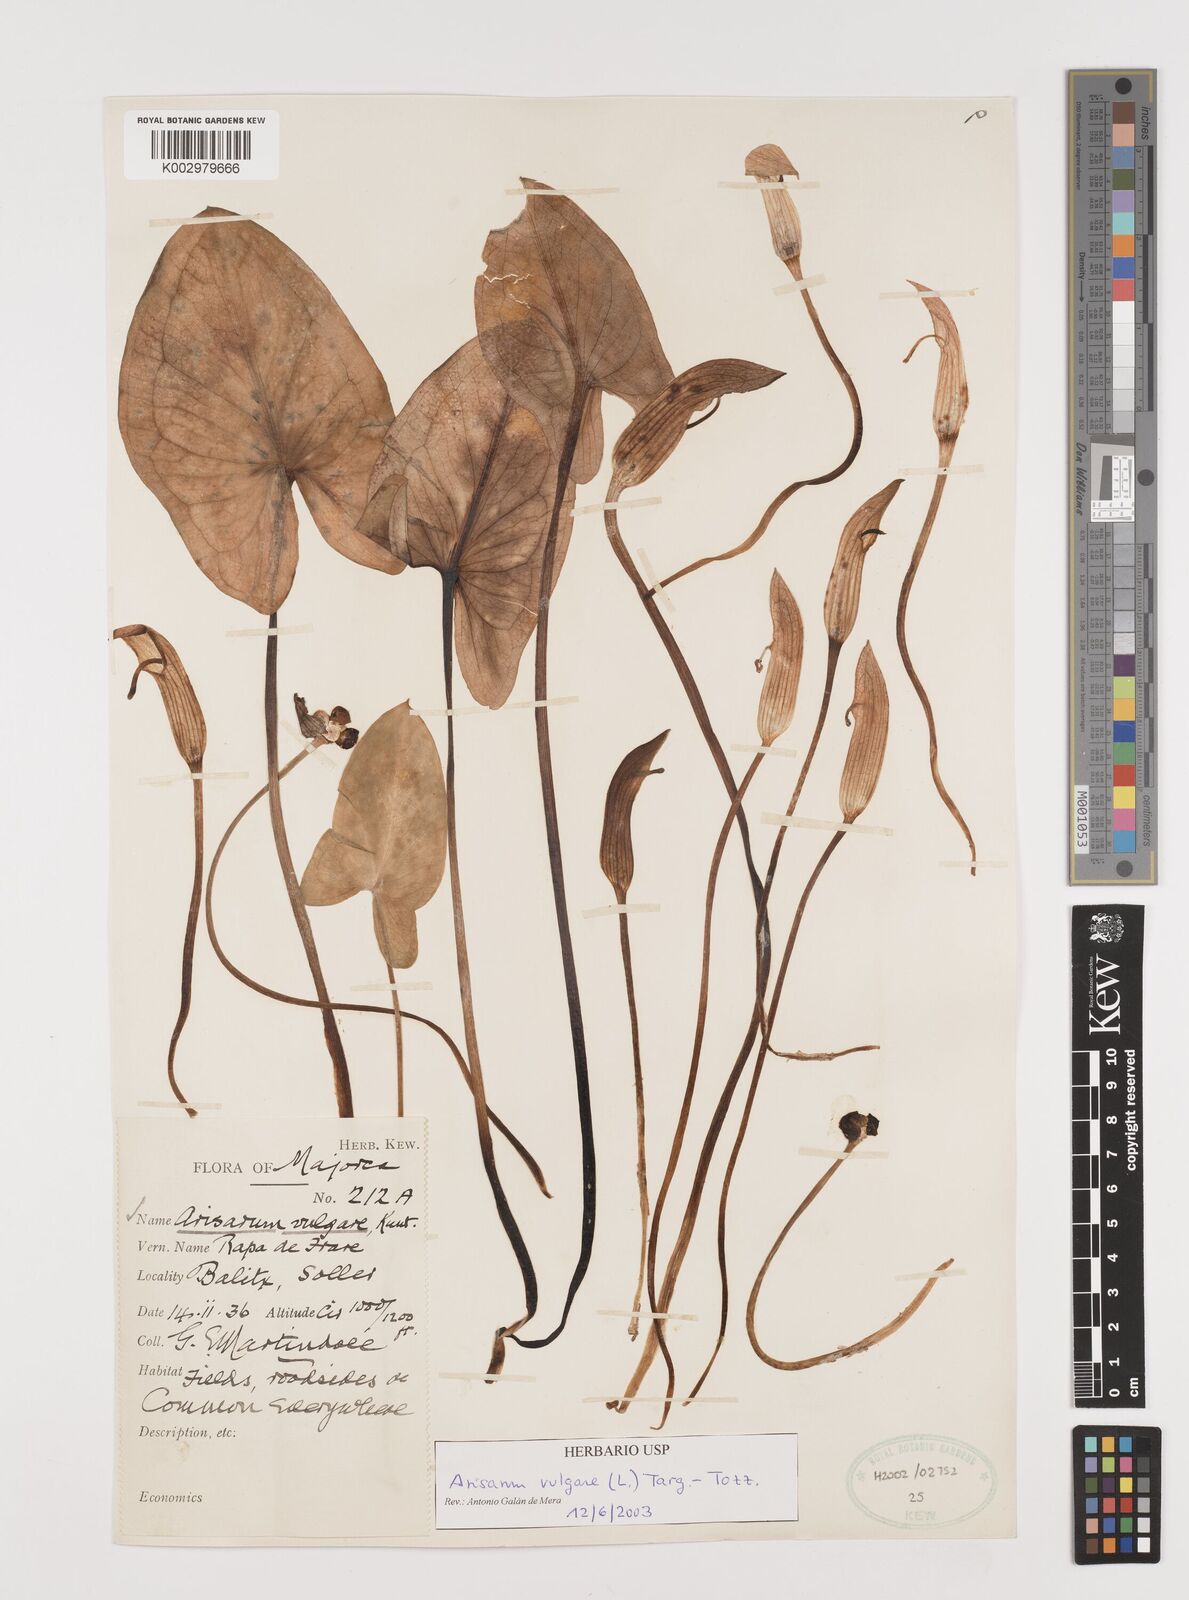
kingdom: Plantae
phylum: Tracheophyta
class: Liliopsida
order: Alismatales
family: Araceae
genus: Arisarum
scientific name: Arisarum vulgare
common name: Common arisarum
